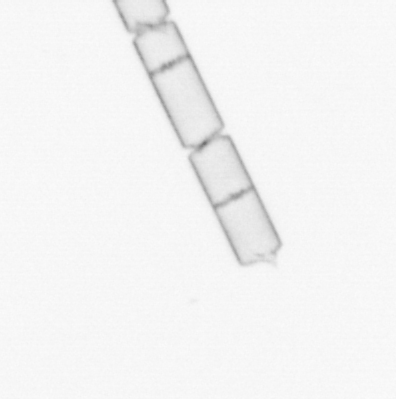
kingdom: Chromista
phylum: Ochrophyta
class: Bacillariophyceae
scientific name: Bacillariophyceae
